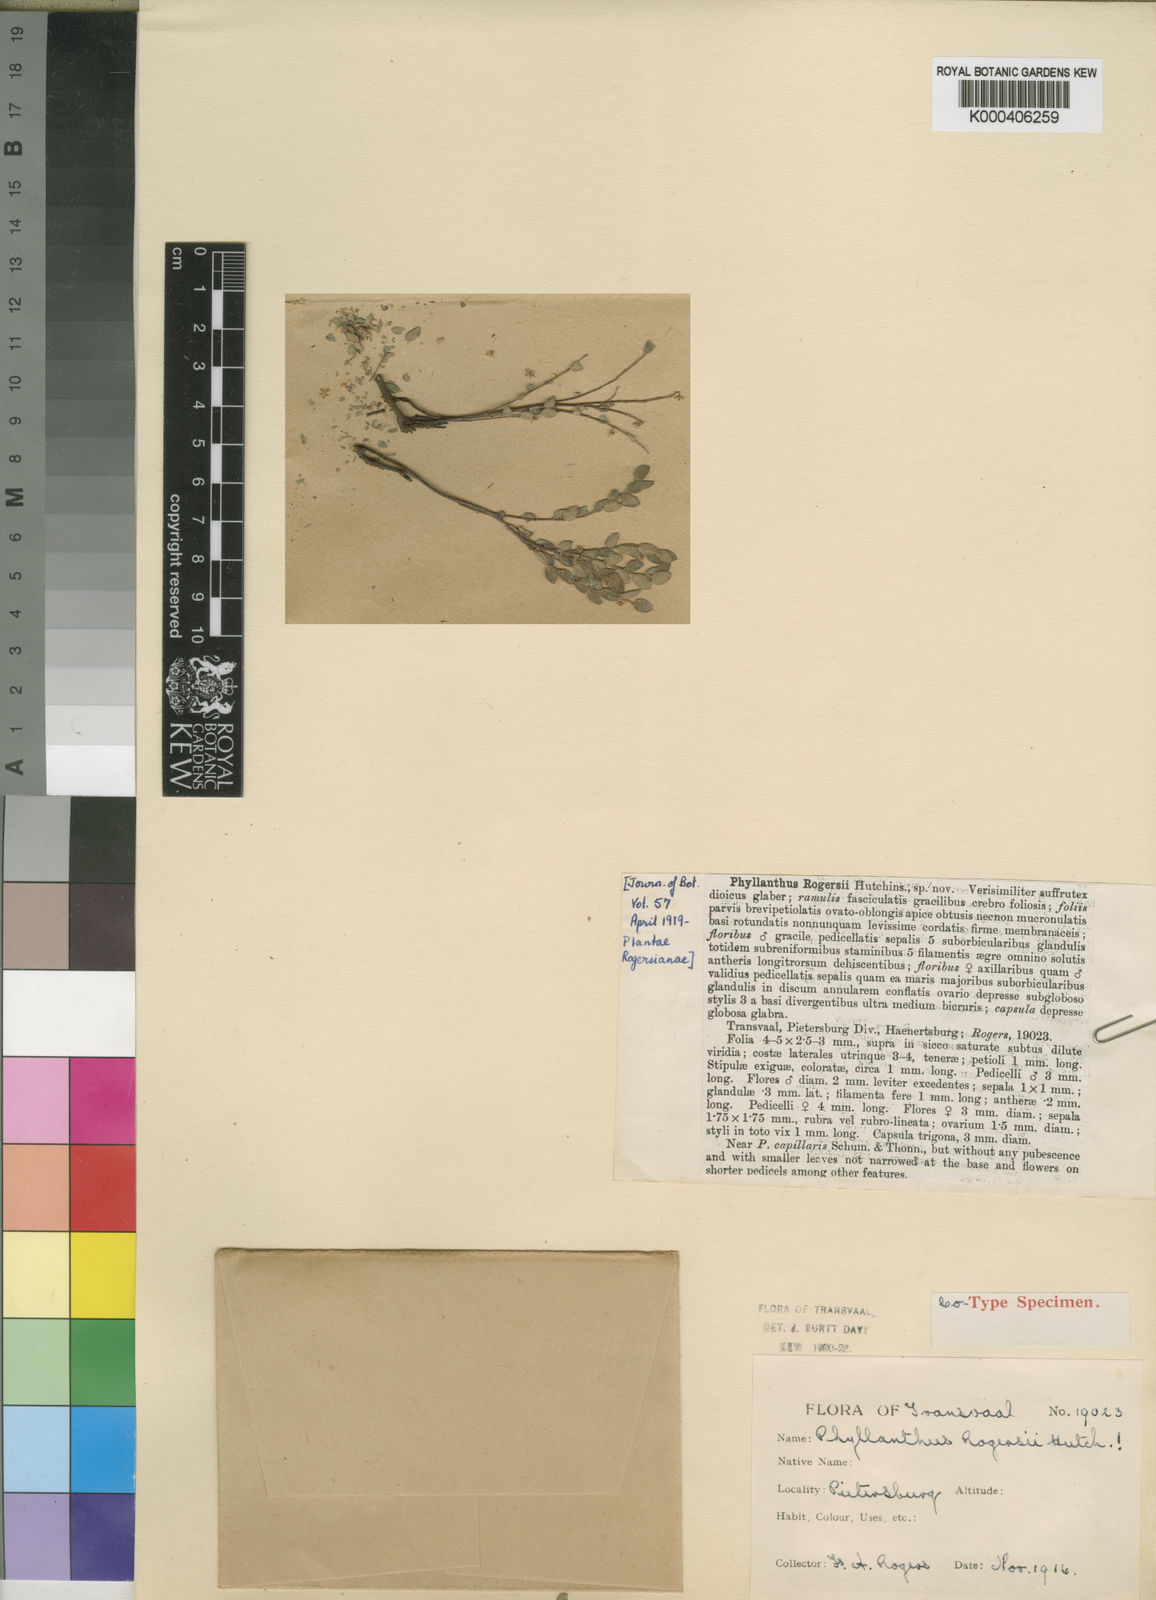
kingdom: Plantae
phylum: Tracheophyta
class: Magnoliopsida
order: Malpighiales
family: Phyllanthaceae
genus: Phyllanthus
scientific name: Phyllanthus graminicola
